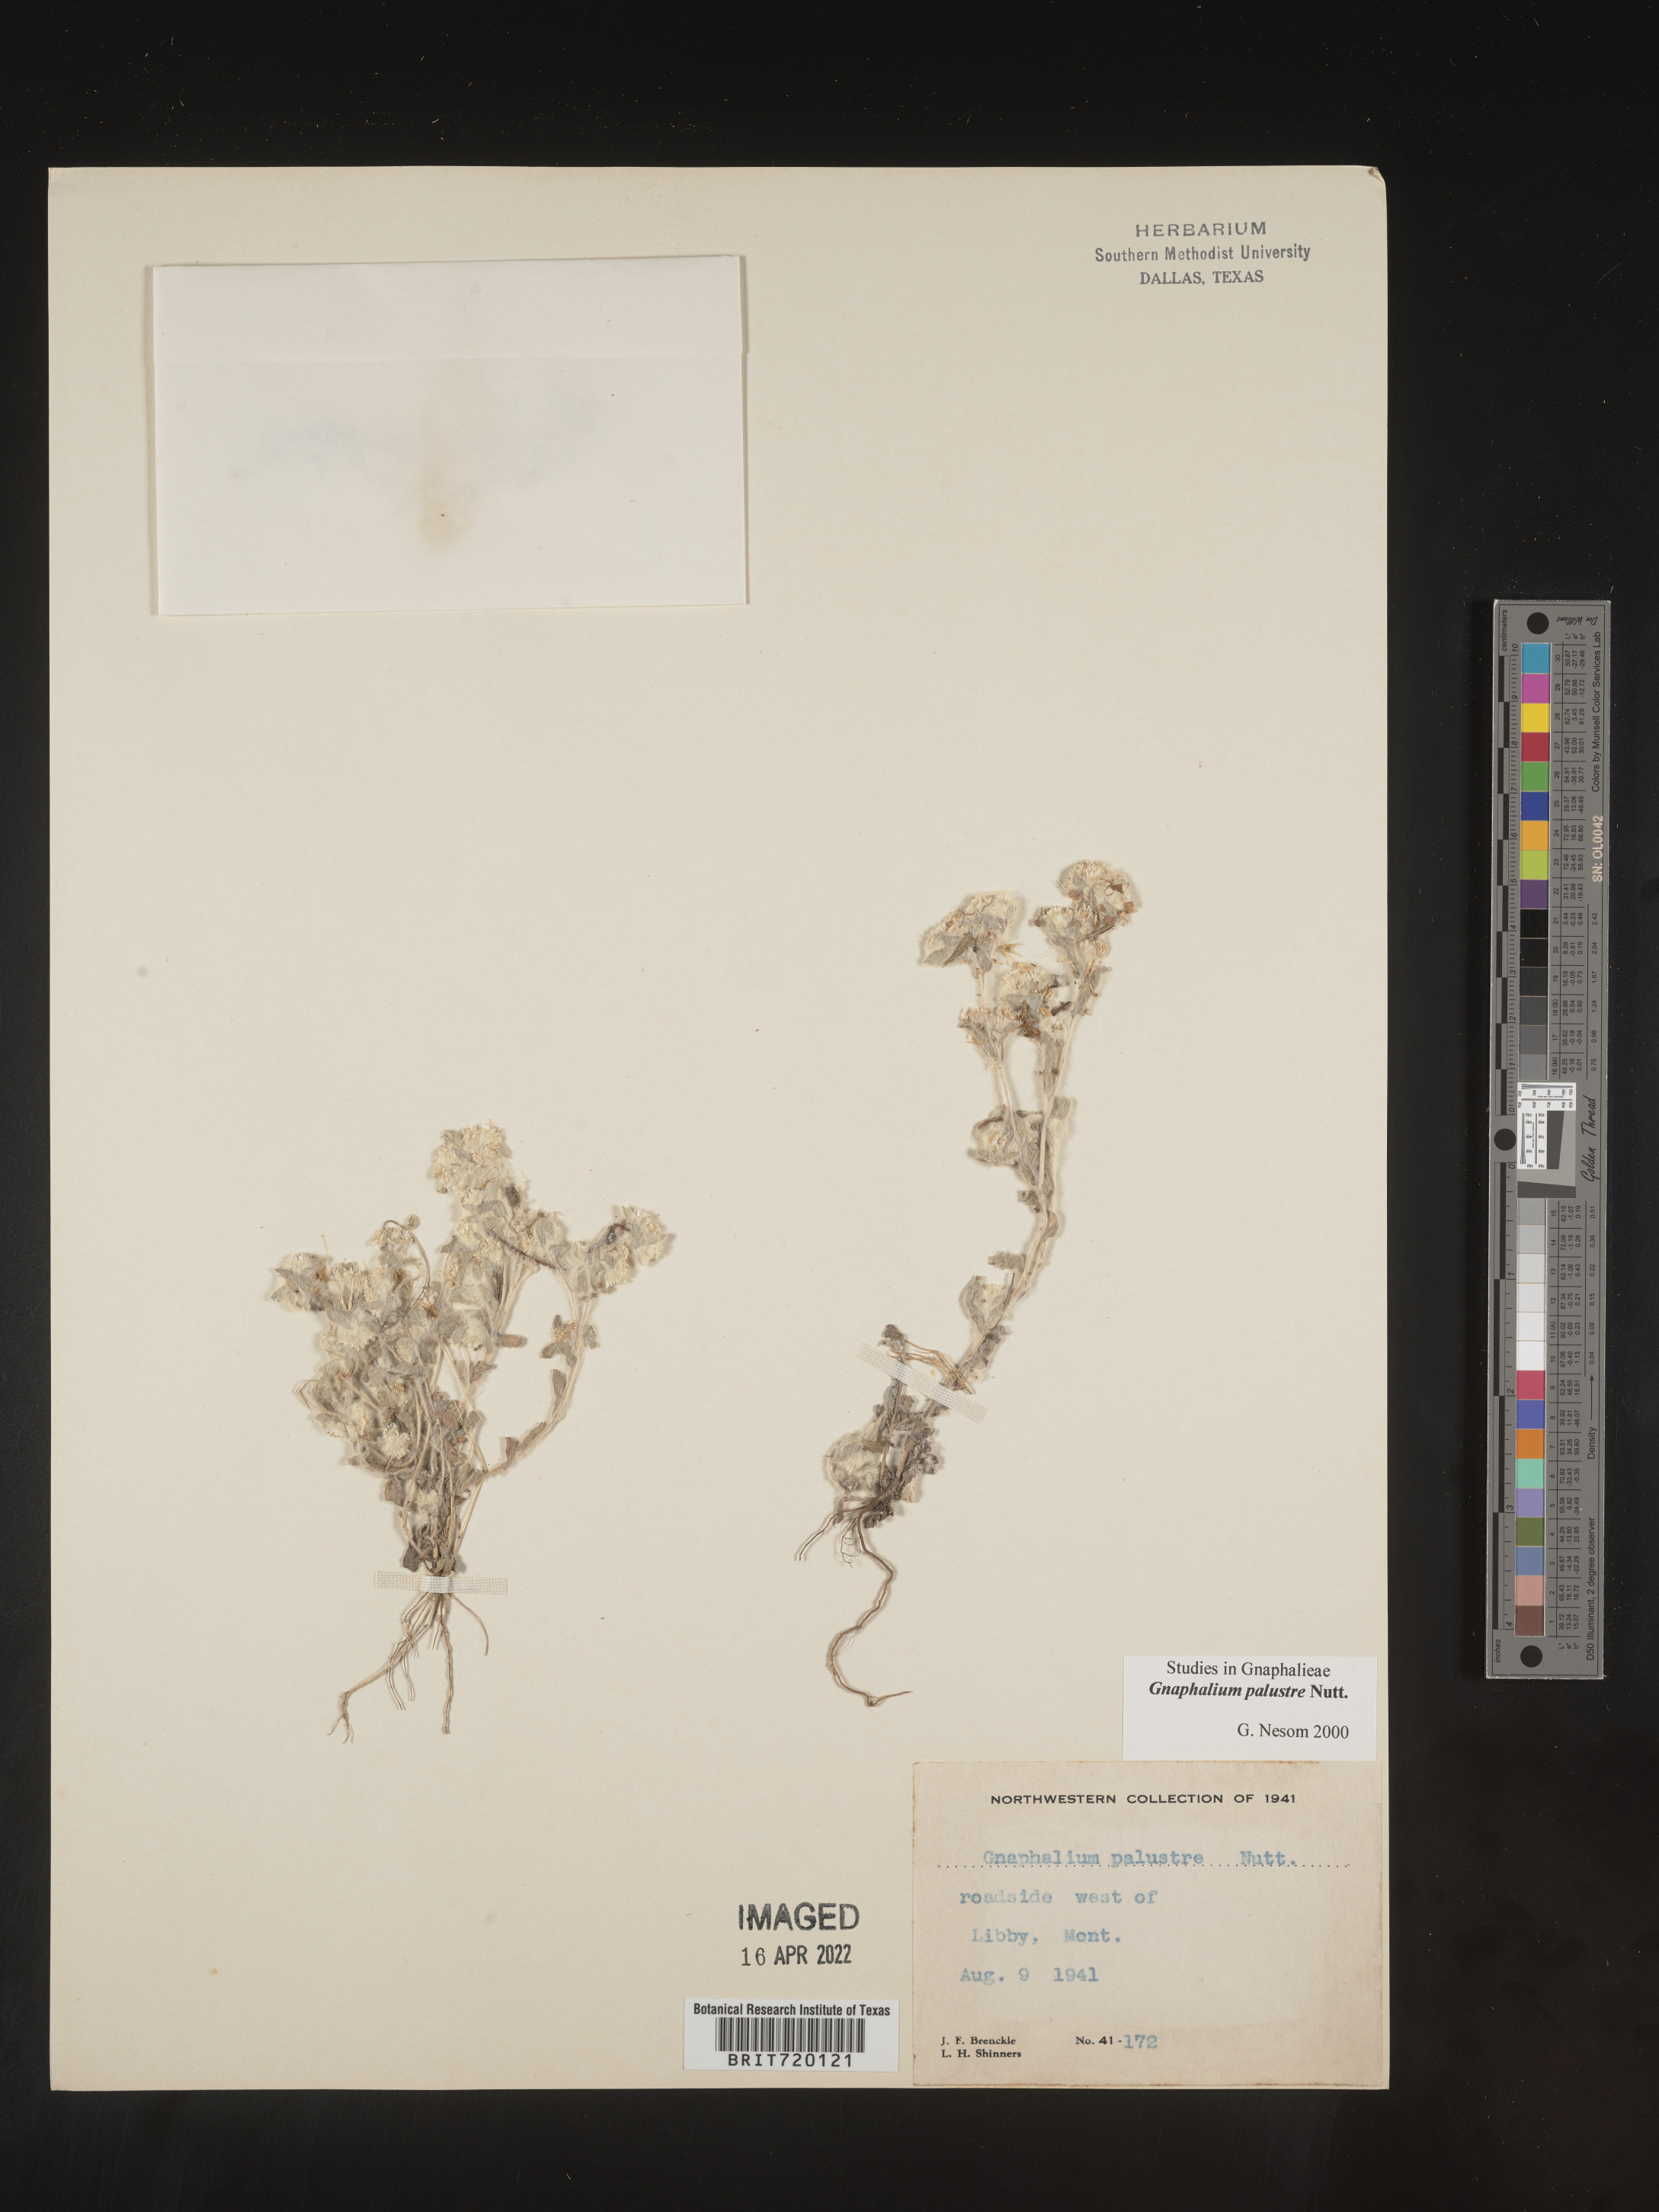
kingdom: Plantae
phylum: Tracheophyta
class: Magnoliopsida
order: Asterales
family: Asteraceae
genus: Gnaphalium
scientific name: Gnaphalium palustre
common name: Western marsh cudweed
